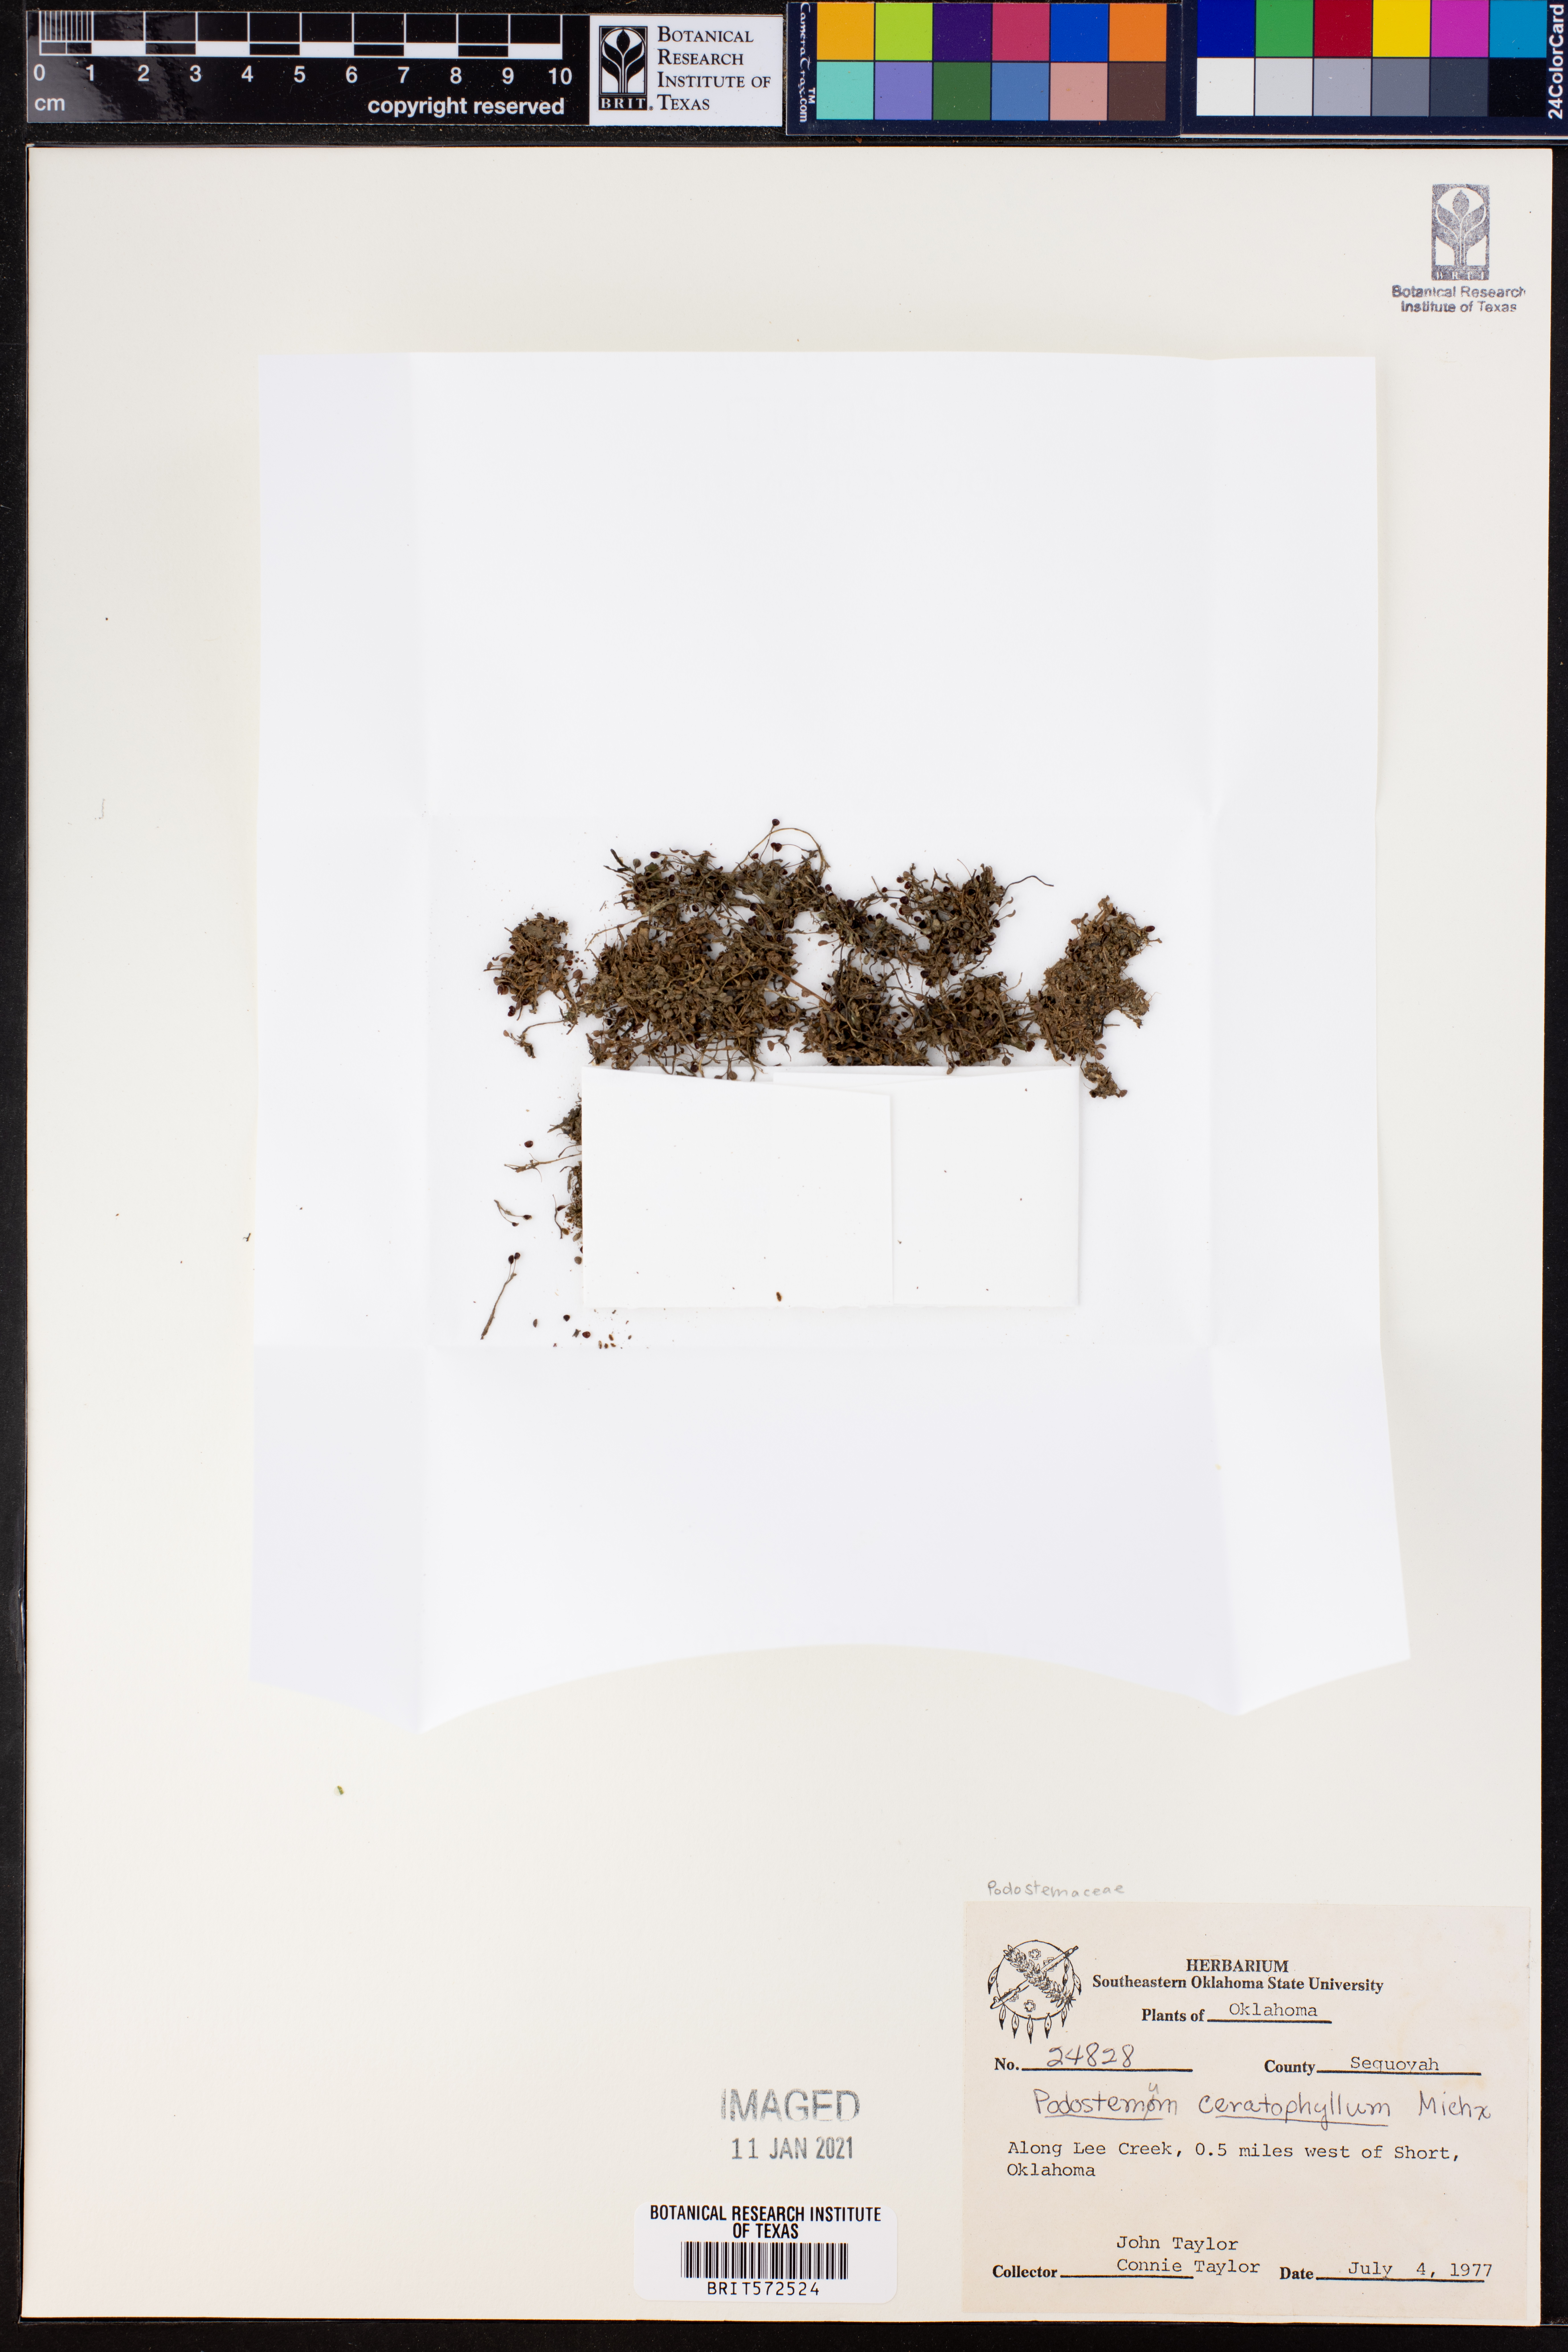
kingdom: Plantae
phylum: Tracheophyta
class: Magnoliopsida
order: Malpighiales
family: Podostemaceae
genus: Podostemum
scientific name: Podostemum ceratophyllum
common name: Horn-leaved riverweed
